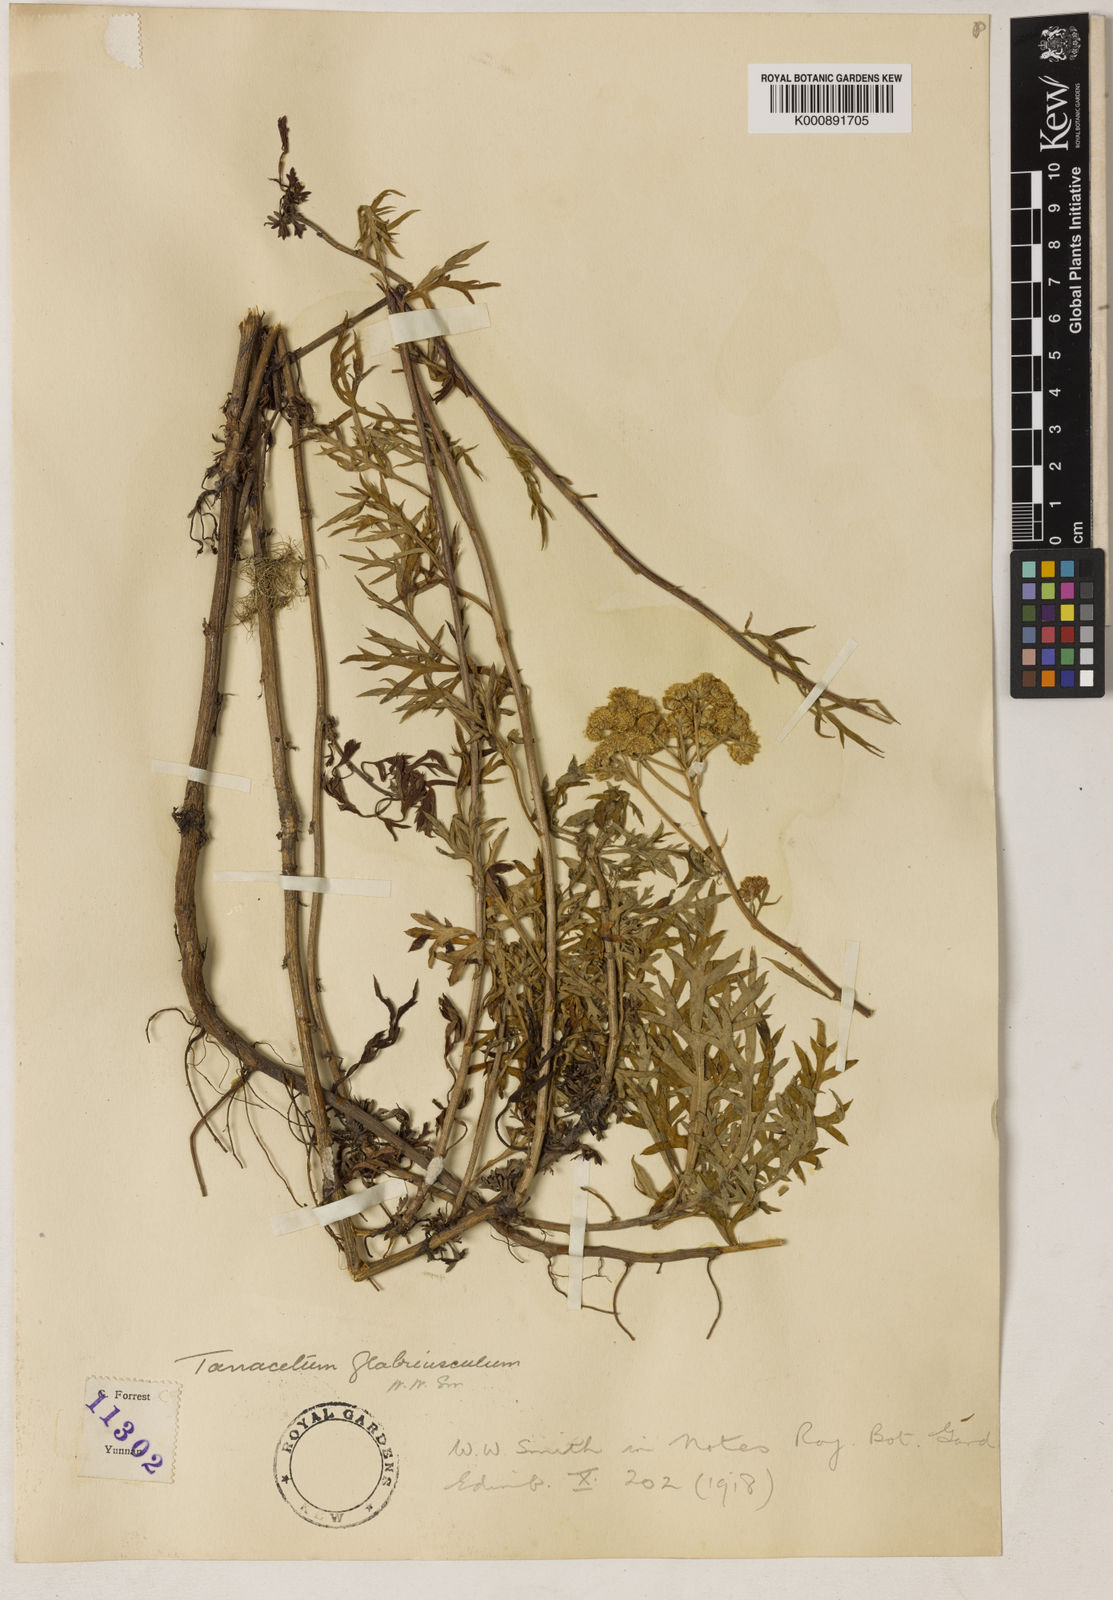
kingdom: Plantae
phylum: Tracheophyta
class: Magnoliopsida
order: Asterales
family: Asteraceae
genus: Chrysanthemum
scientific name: Chrysanthemum glabriusculum
